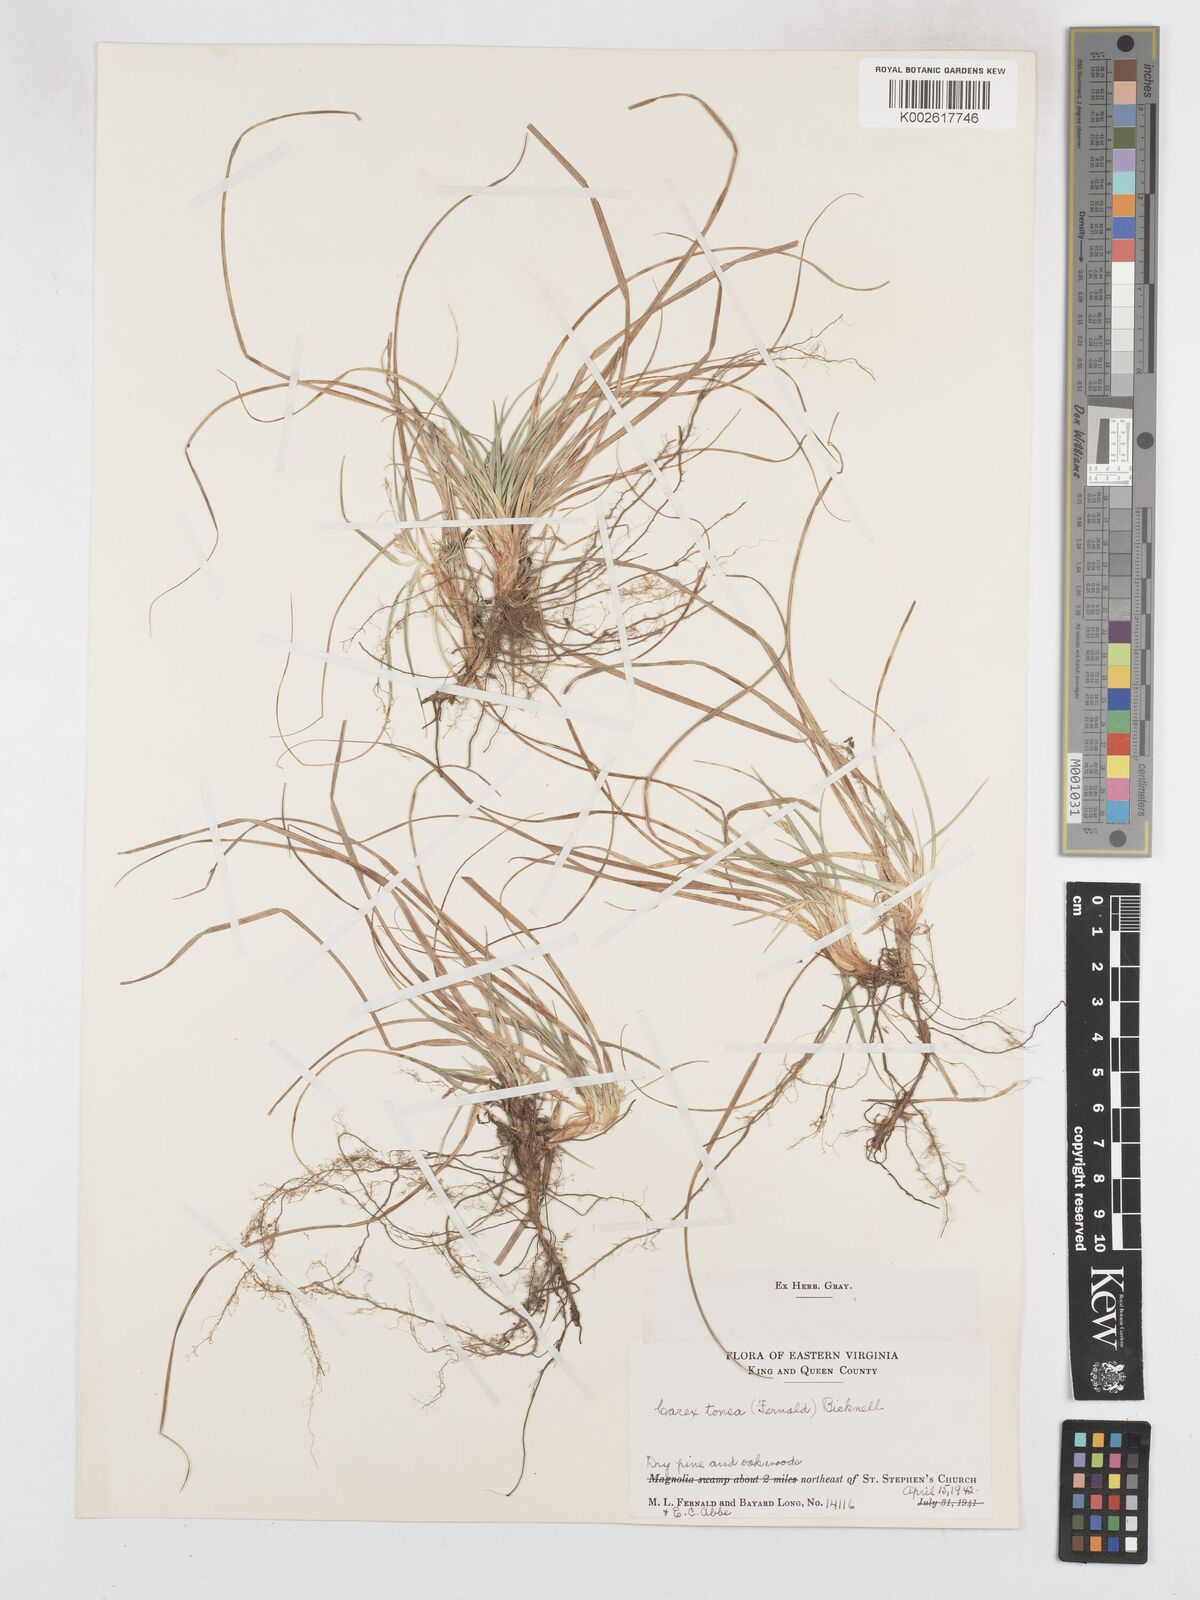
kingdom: Plantae
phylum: Tracheophyta
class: Liliopsida
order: Poales
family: Cyperaceae
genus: Carex
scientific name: Carex tonsa
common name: Bald sedge
